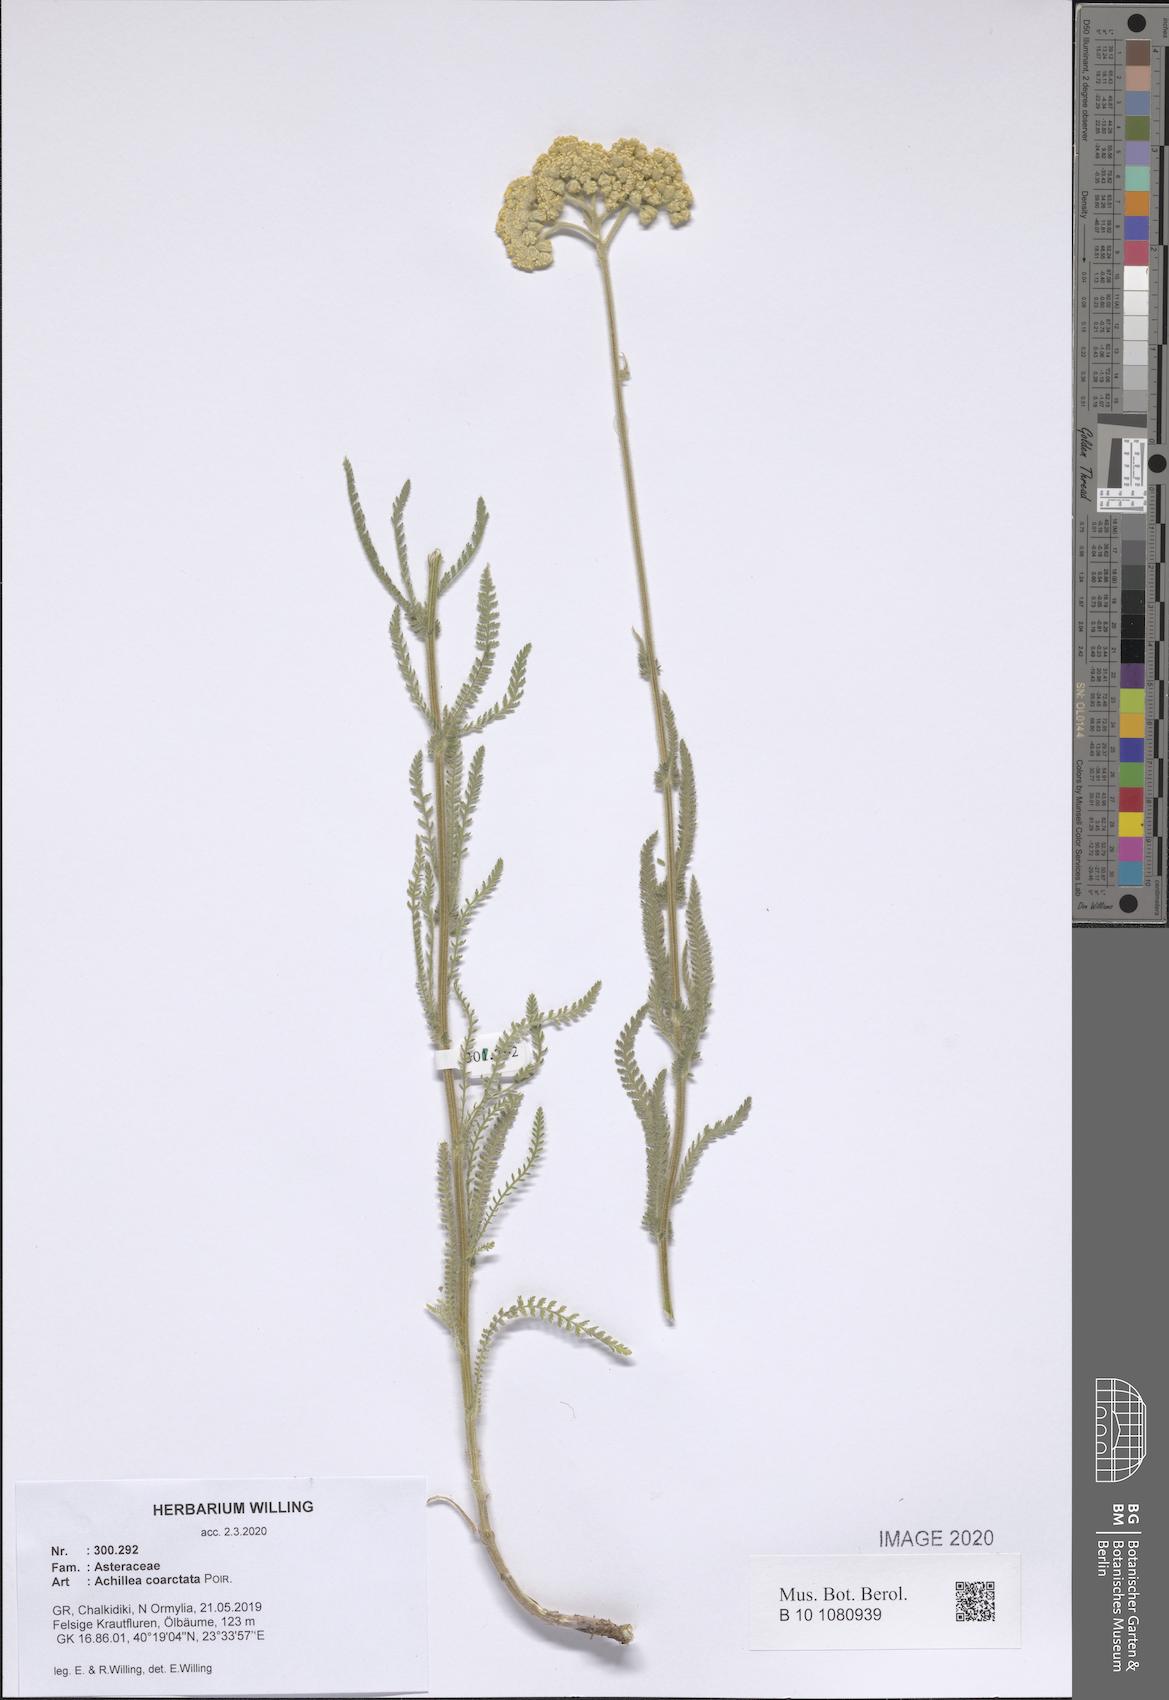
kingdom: Plantae
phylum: Tracheophyta
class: Magnoliopsida
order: Asterales
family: Asteraceae
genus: Achillea
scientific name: Achillea coarctata
